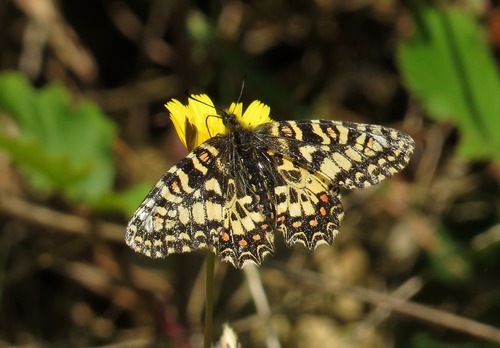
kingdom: Animalia
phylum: Arthropoda
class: Insecta
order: Lepidoptera
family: Papilionidae
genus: Zerynthia
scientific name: Zerynthia rumina
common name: Spanish festoon
